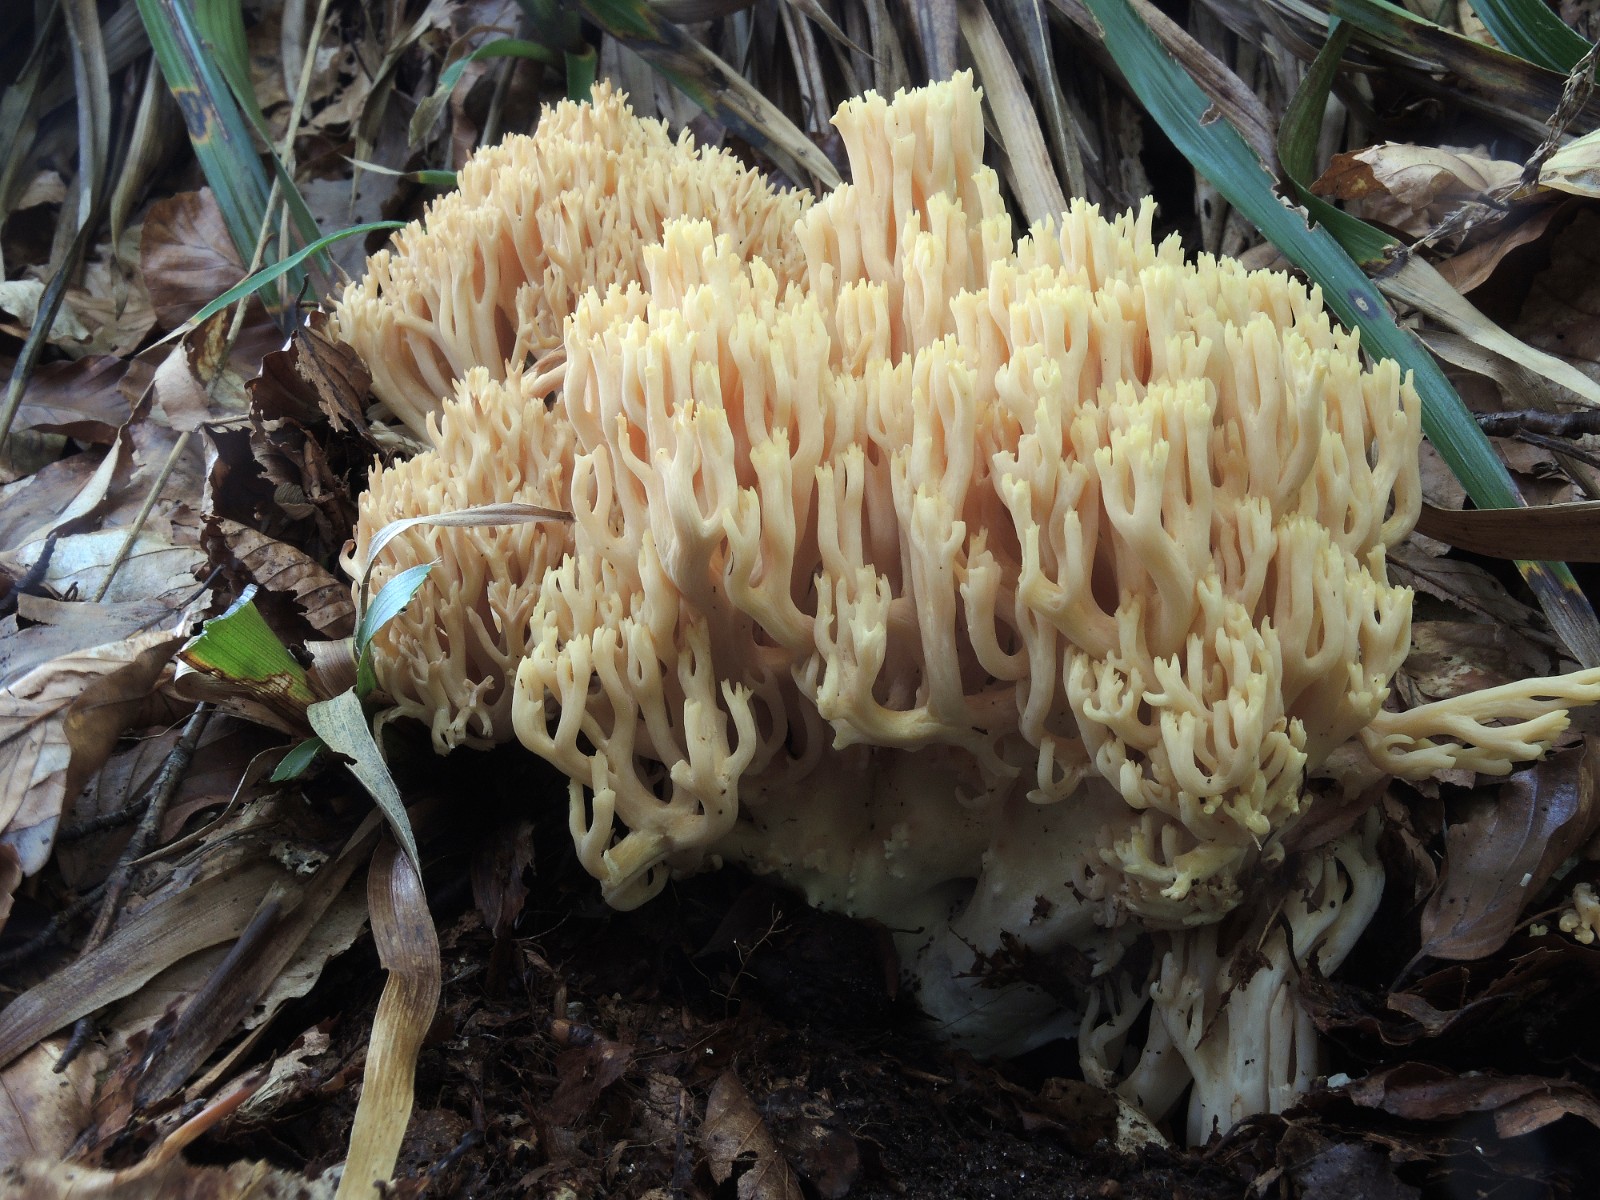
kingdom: Fungi
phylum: Basidiomycota
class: Agaricomycetes
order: Gomphales
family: Gomphaceae
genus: Ramaria
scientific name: Ramaria flavescens
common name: stor koralsvamp
